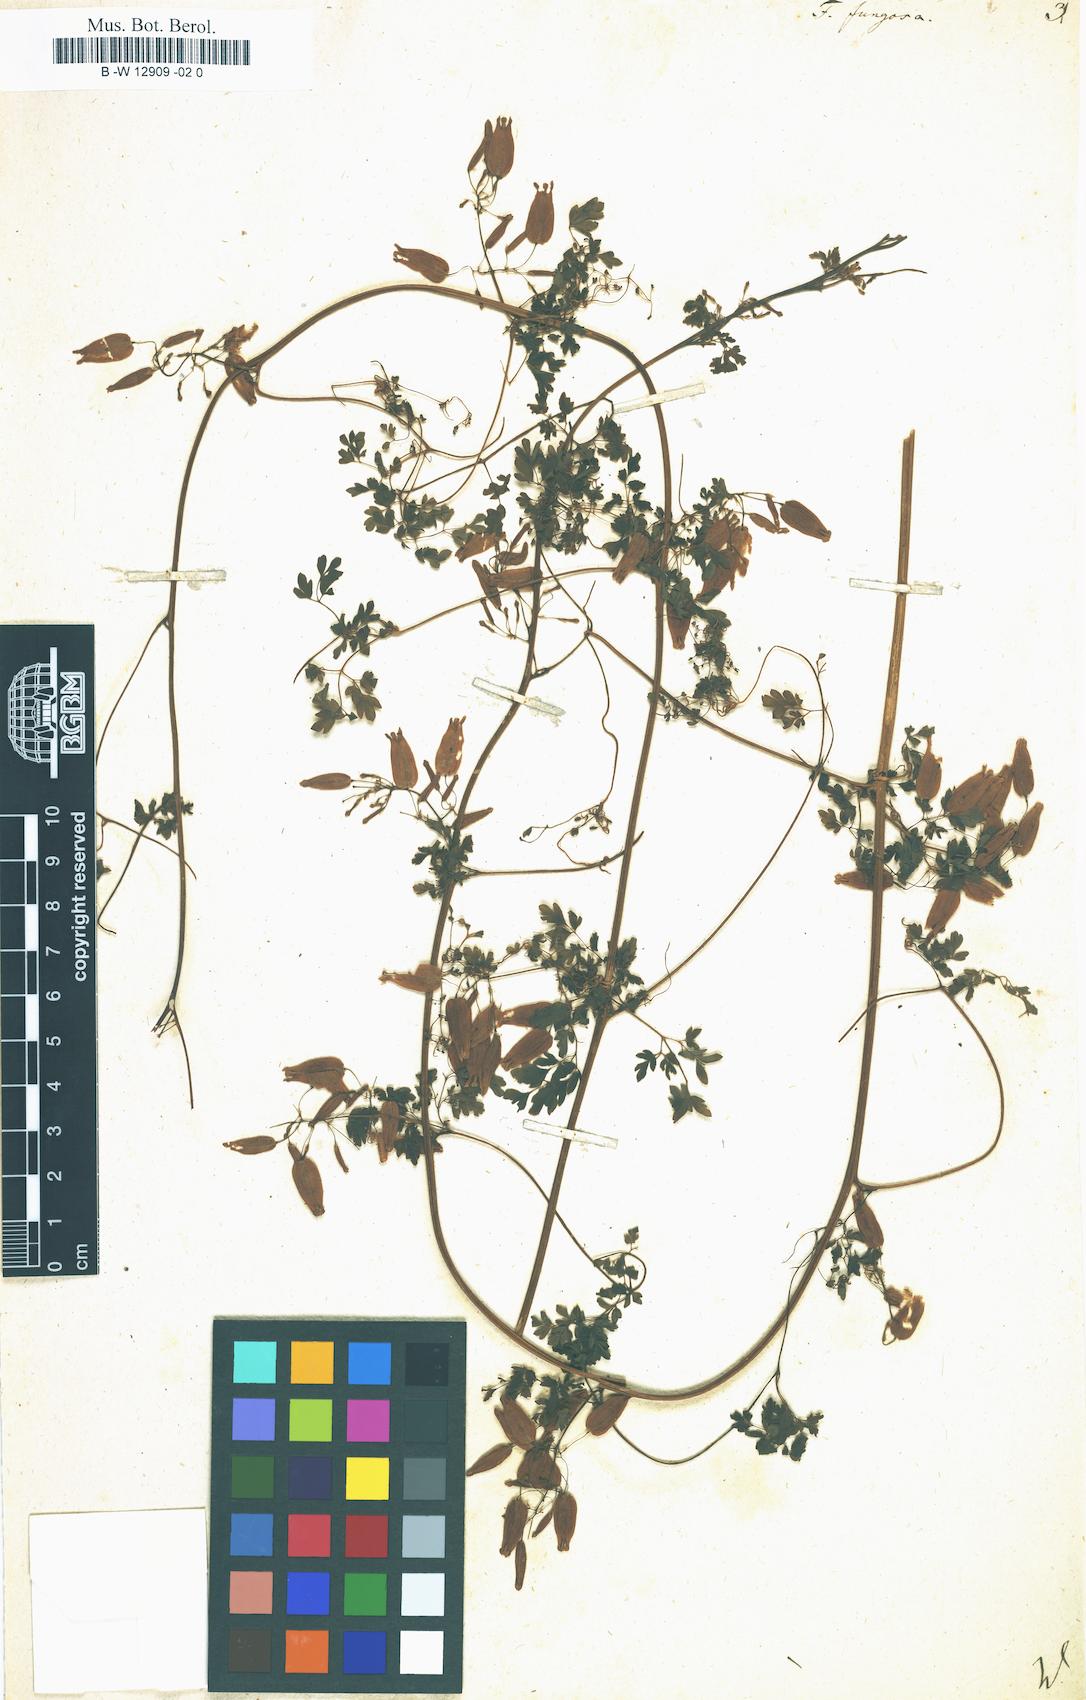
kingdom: Plantae
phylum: Tracheophyta
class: Magnoliopsida
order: Ranunculales
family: Papaveraceae
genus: Adlumia
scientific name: Adlumia fungosa
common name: Mountain-fringe
